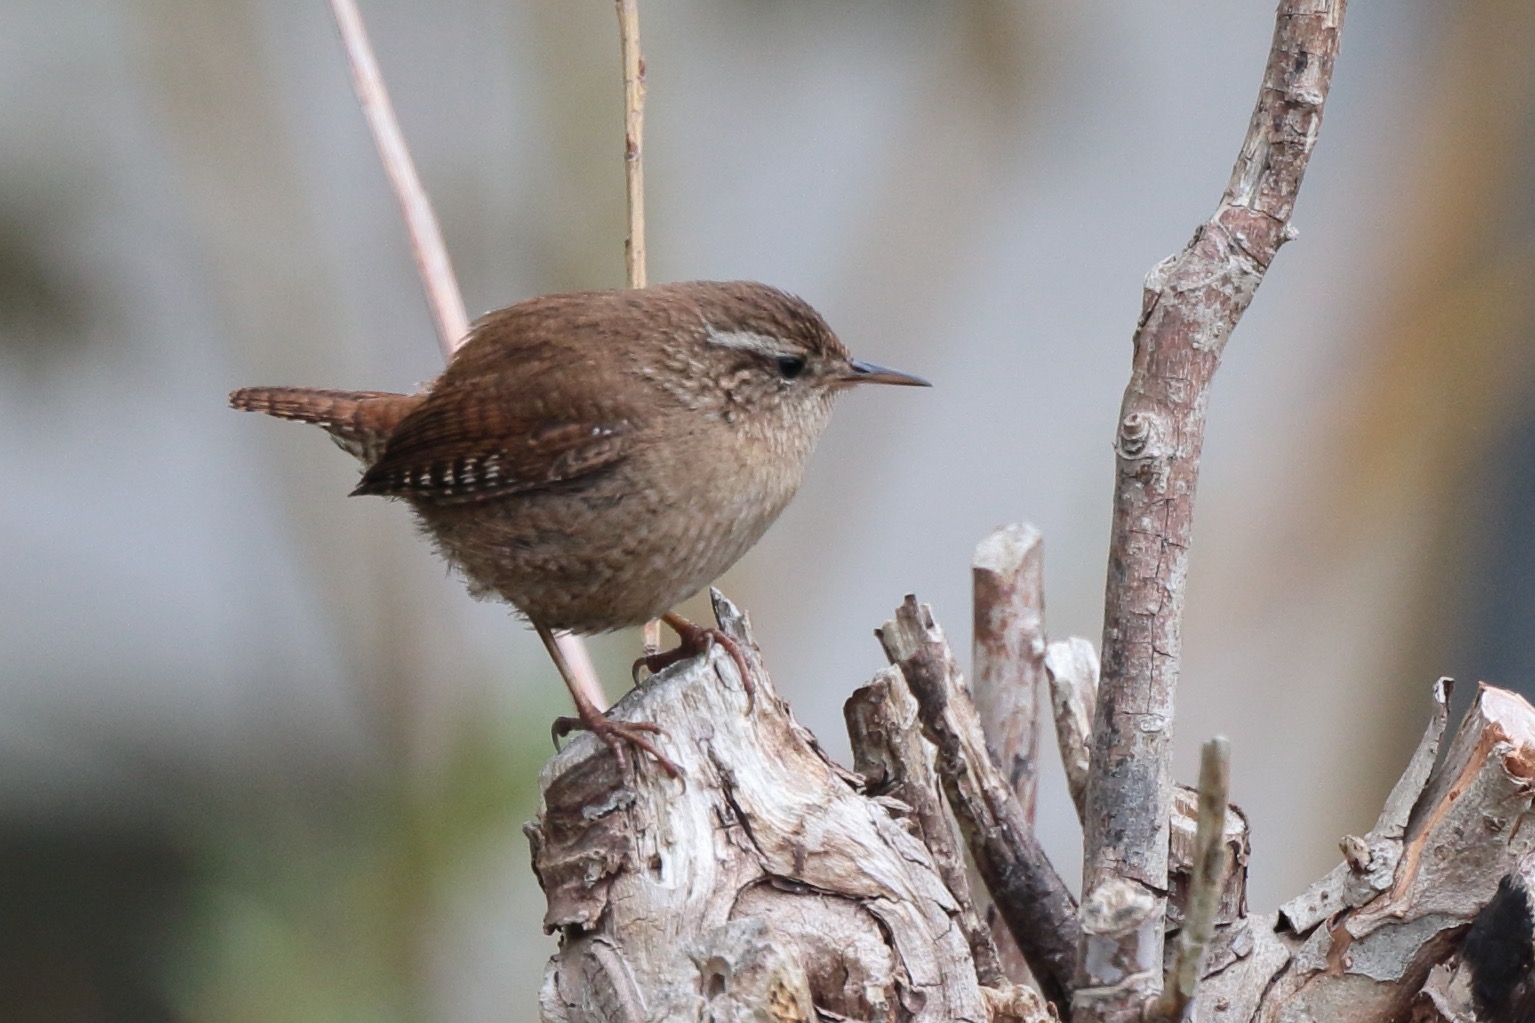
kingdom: Animalia
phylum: Chordata
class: Aves
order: Passeriformes
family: Troglodytidae
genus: Troglodytes
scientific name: Troglodytes troglodytes
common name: Gærdesmutte
